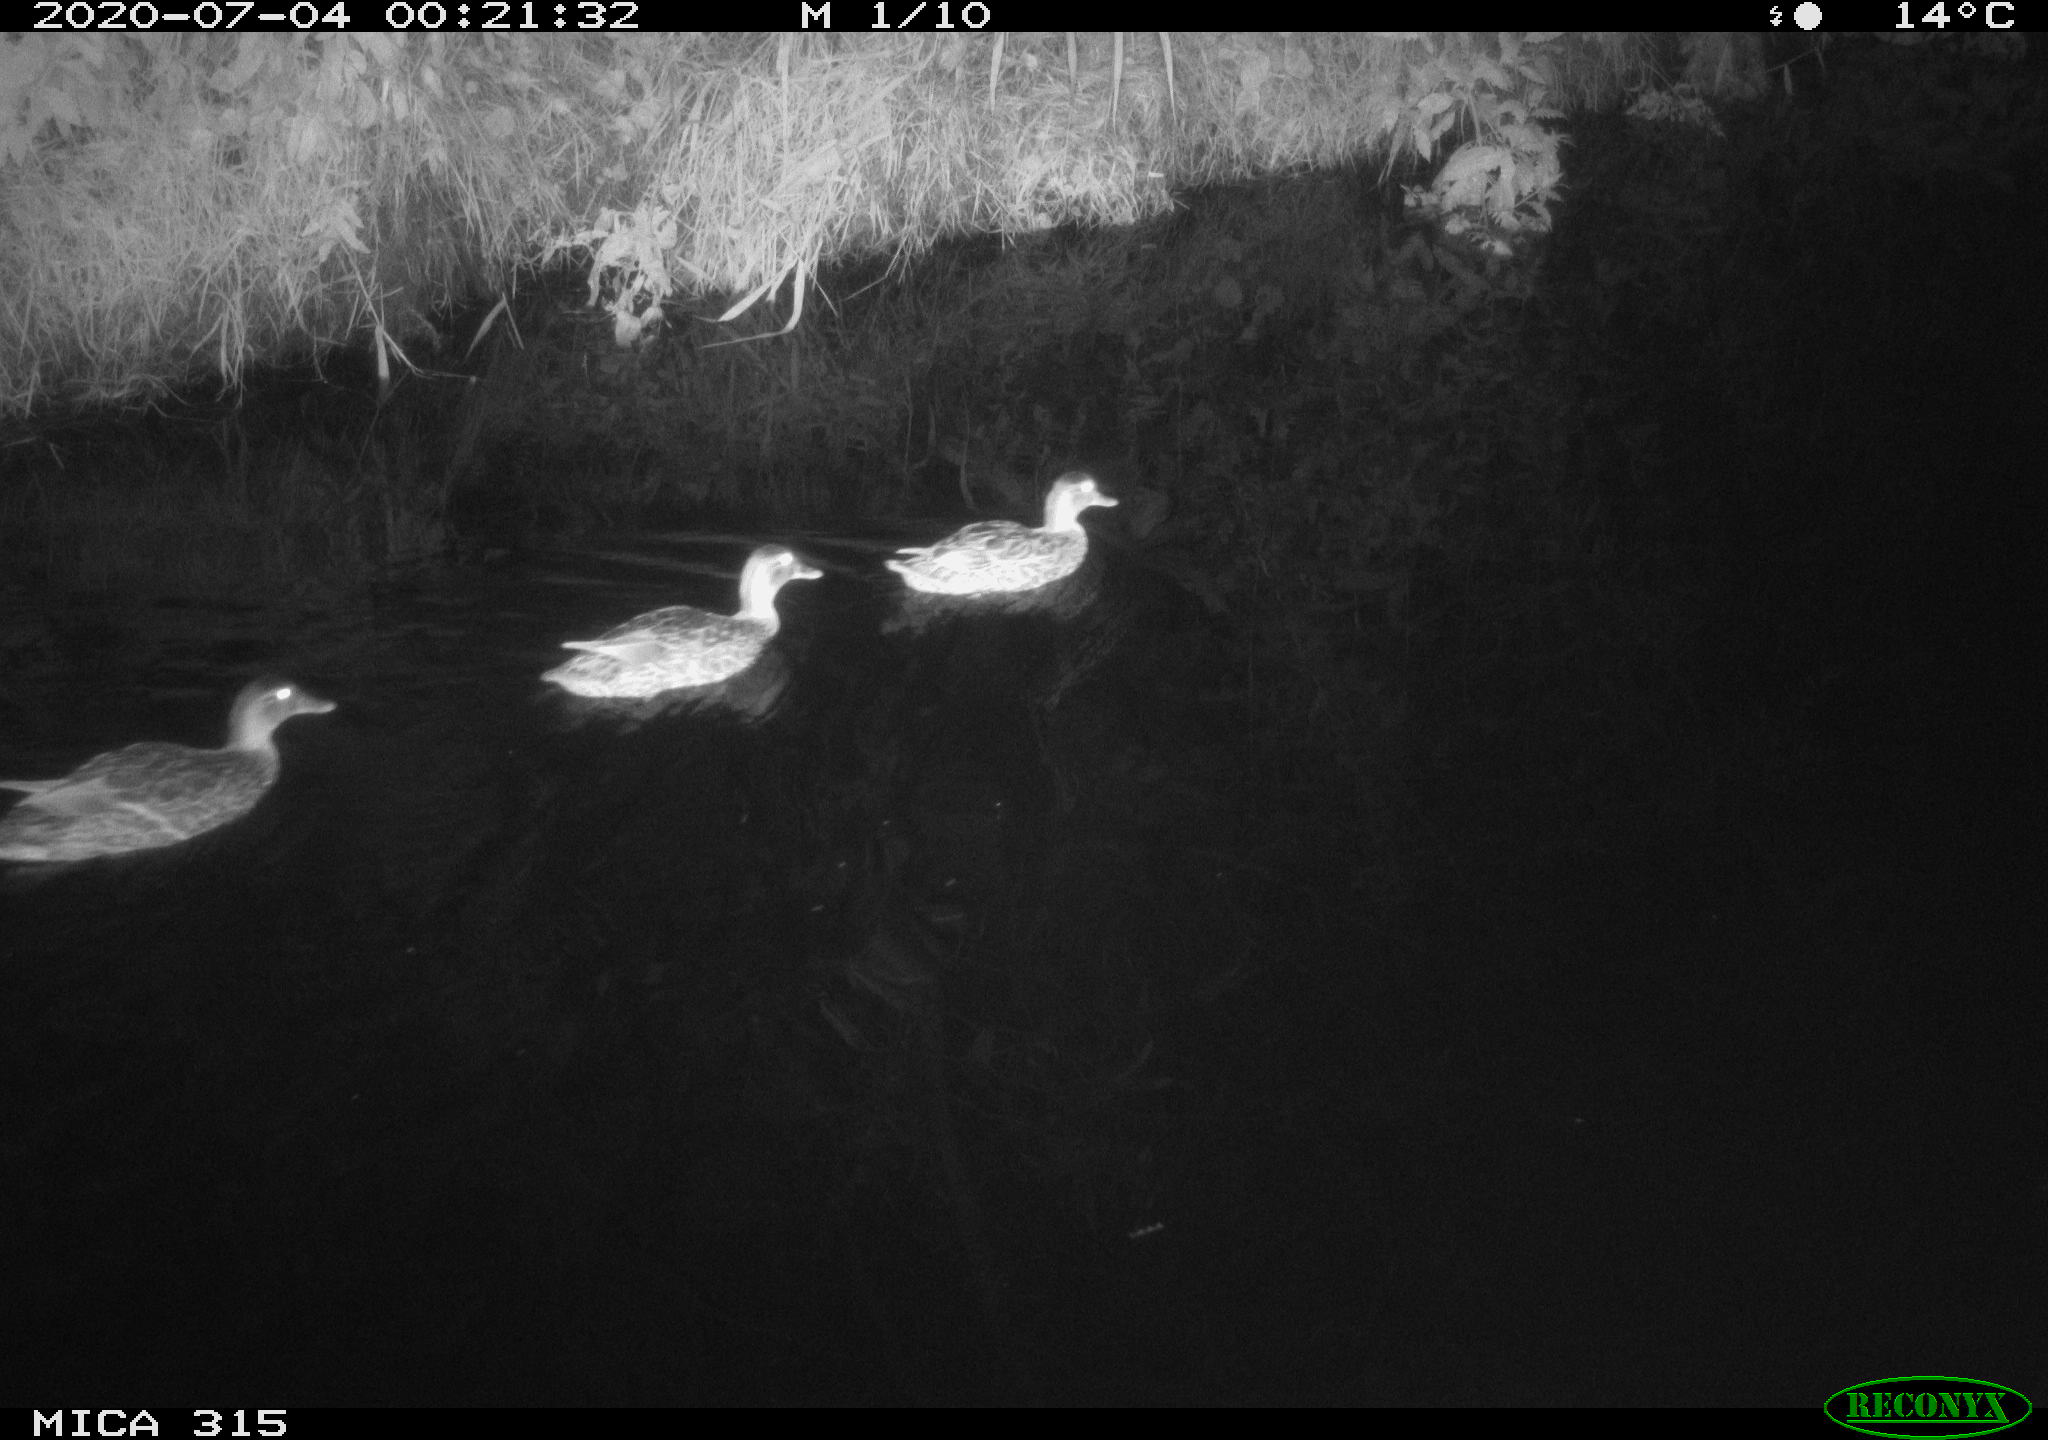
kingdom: Animalia
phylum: Chordata
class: Aves
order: Anseriformes
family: Anatidae
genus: Anas
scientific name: Anas platyrhynchos
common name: Mallard
